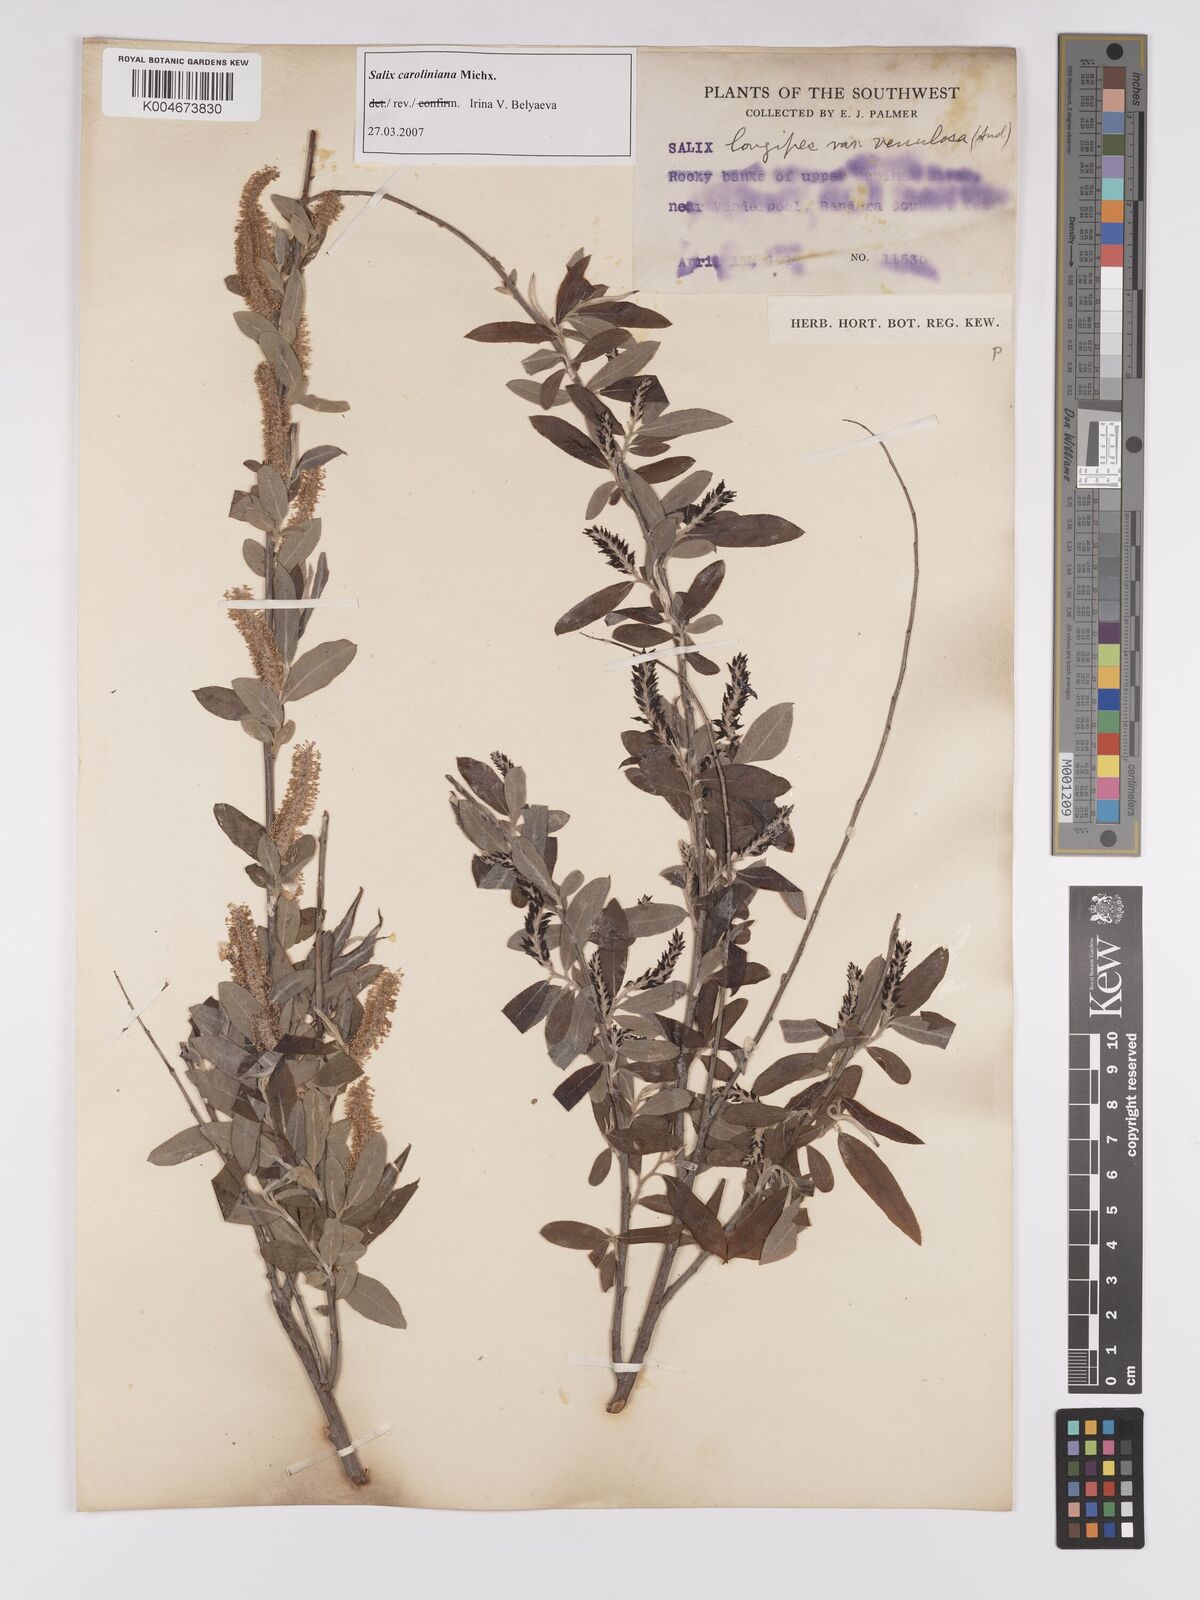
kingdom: Plantae
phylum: Tracheophyta
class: Magnoliopsida
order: Malpighiales
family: Salicaceae
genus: Salix
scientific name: Salix caroliniana
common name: Carolina willow
